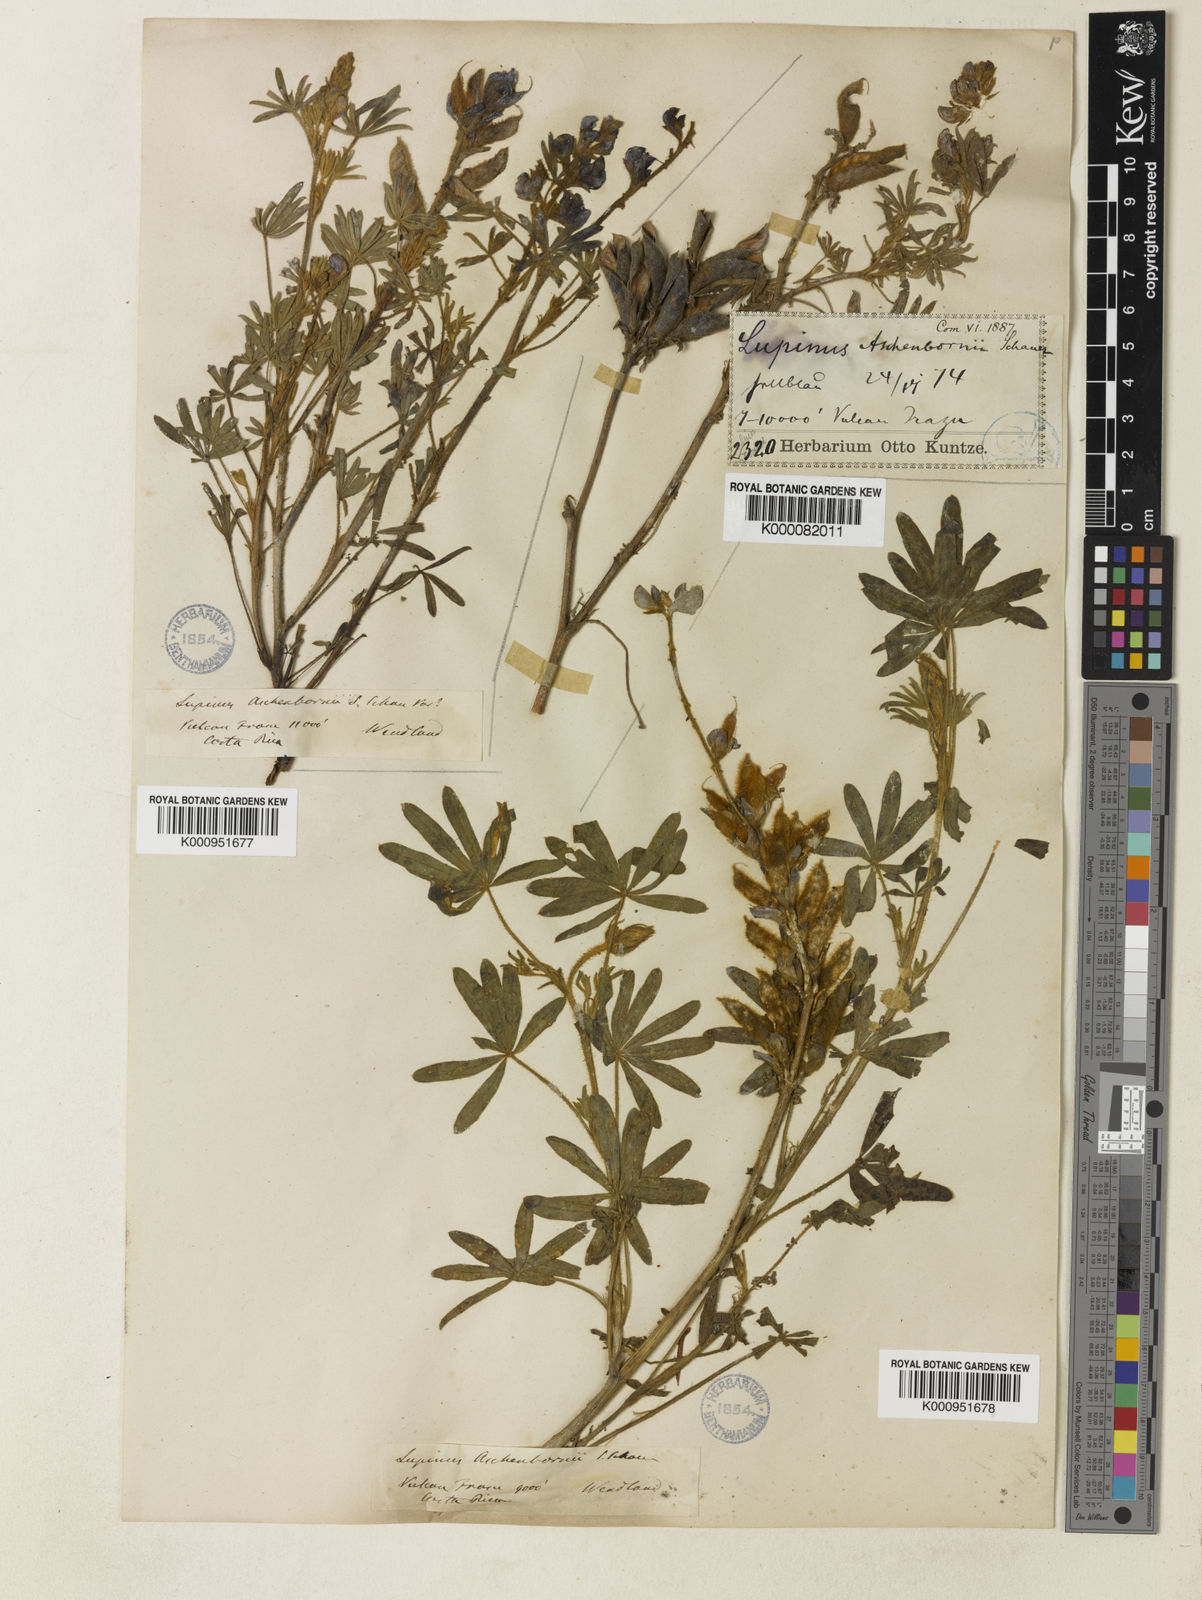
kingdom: Plantae
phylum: Tracheophyta
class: Magnoliopsida
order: Fabales
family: Fabaceae
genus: Lupinus
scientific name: Lupinus aschenbornii
